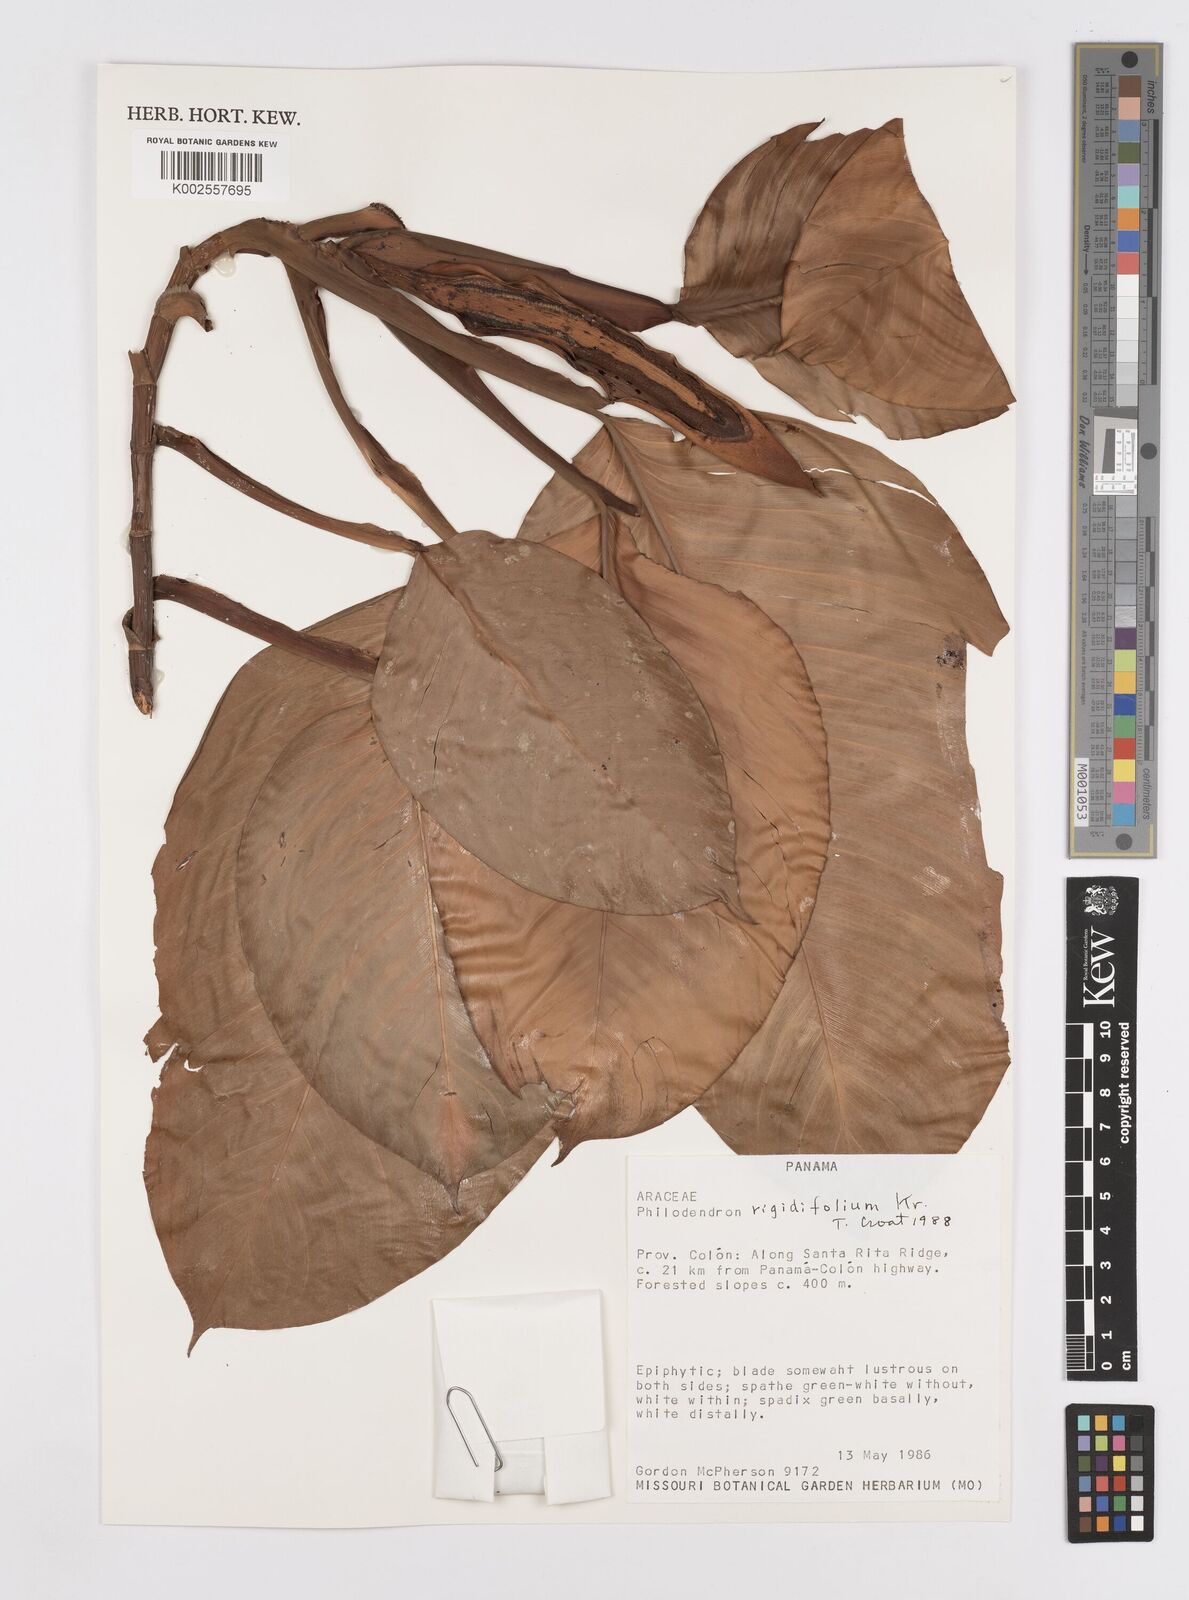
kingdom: Plantae
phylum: Tracheophyta
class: Liliopsida
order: Alismatales
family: Araceae
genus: Philodendron
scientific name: Philodendron rigidifolium
